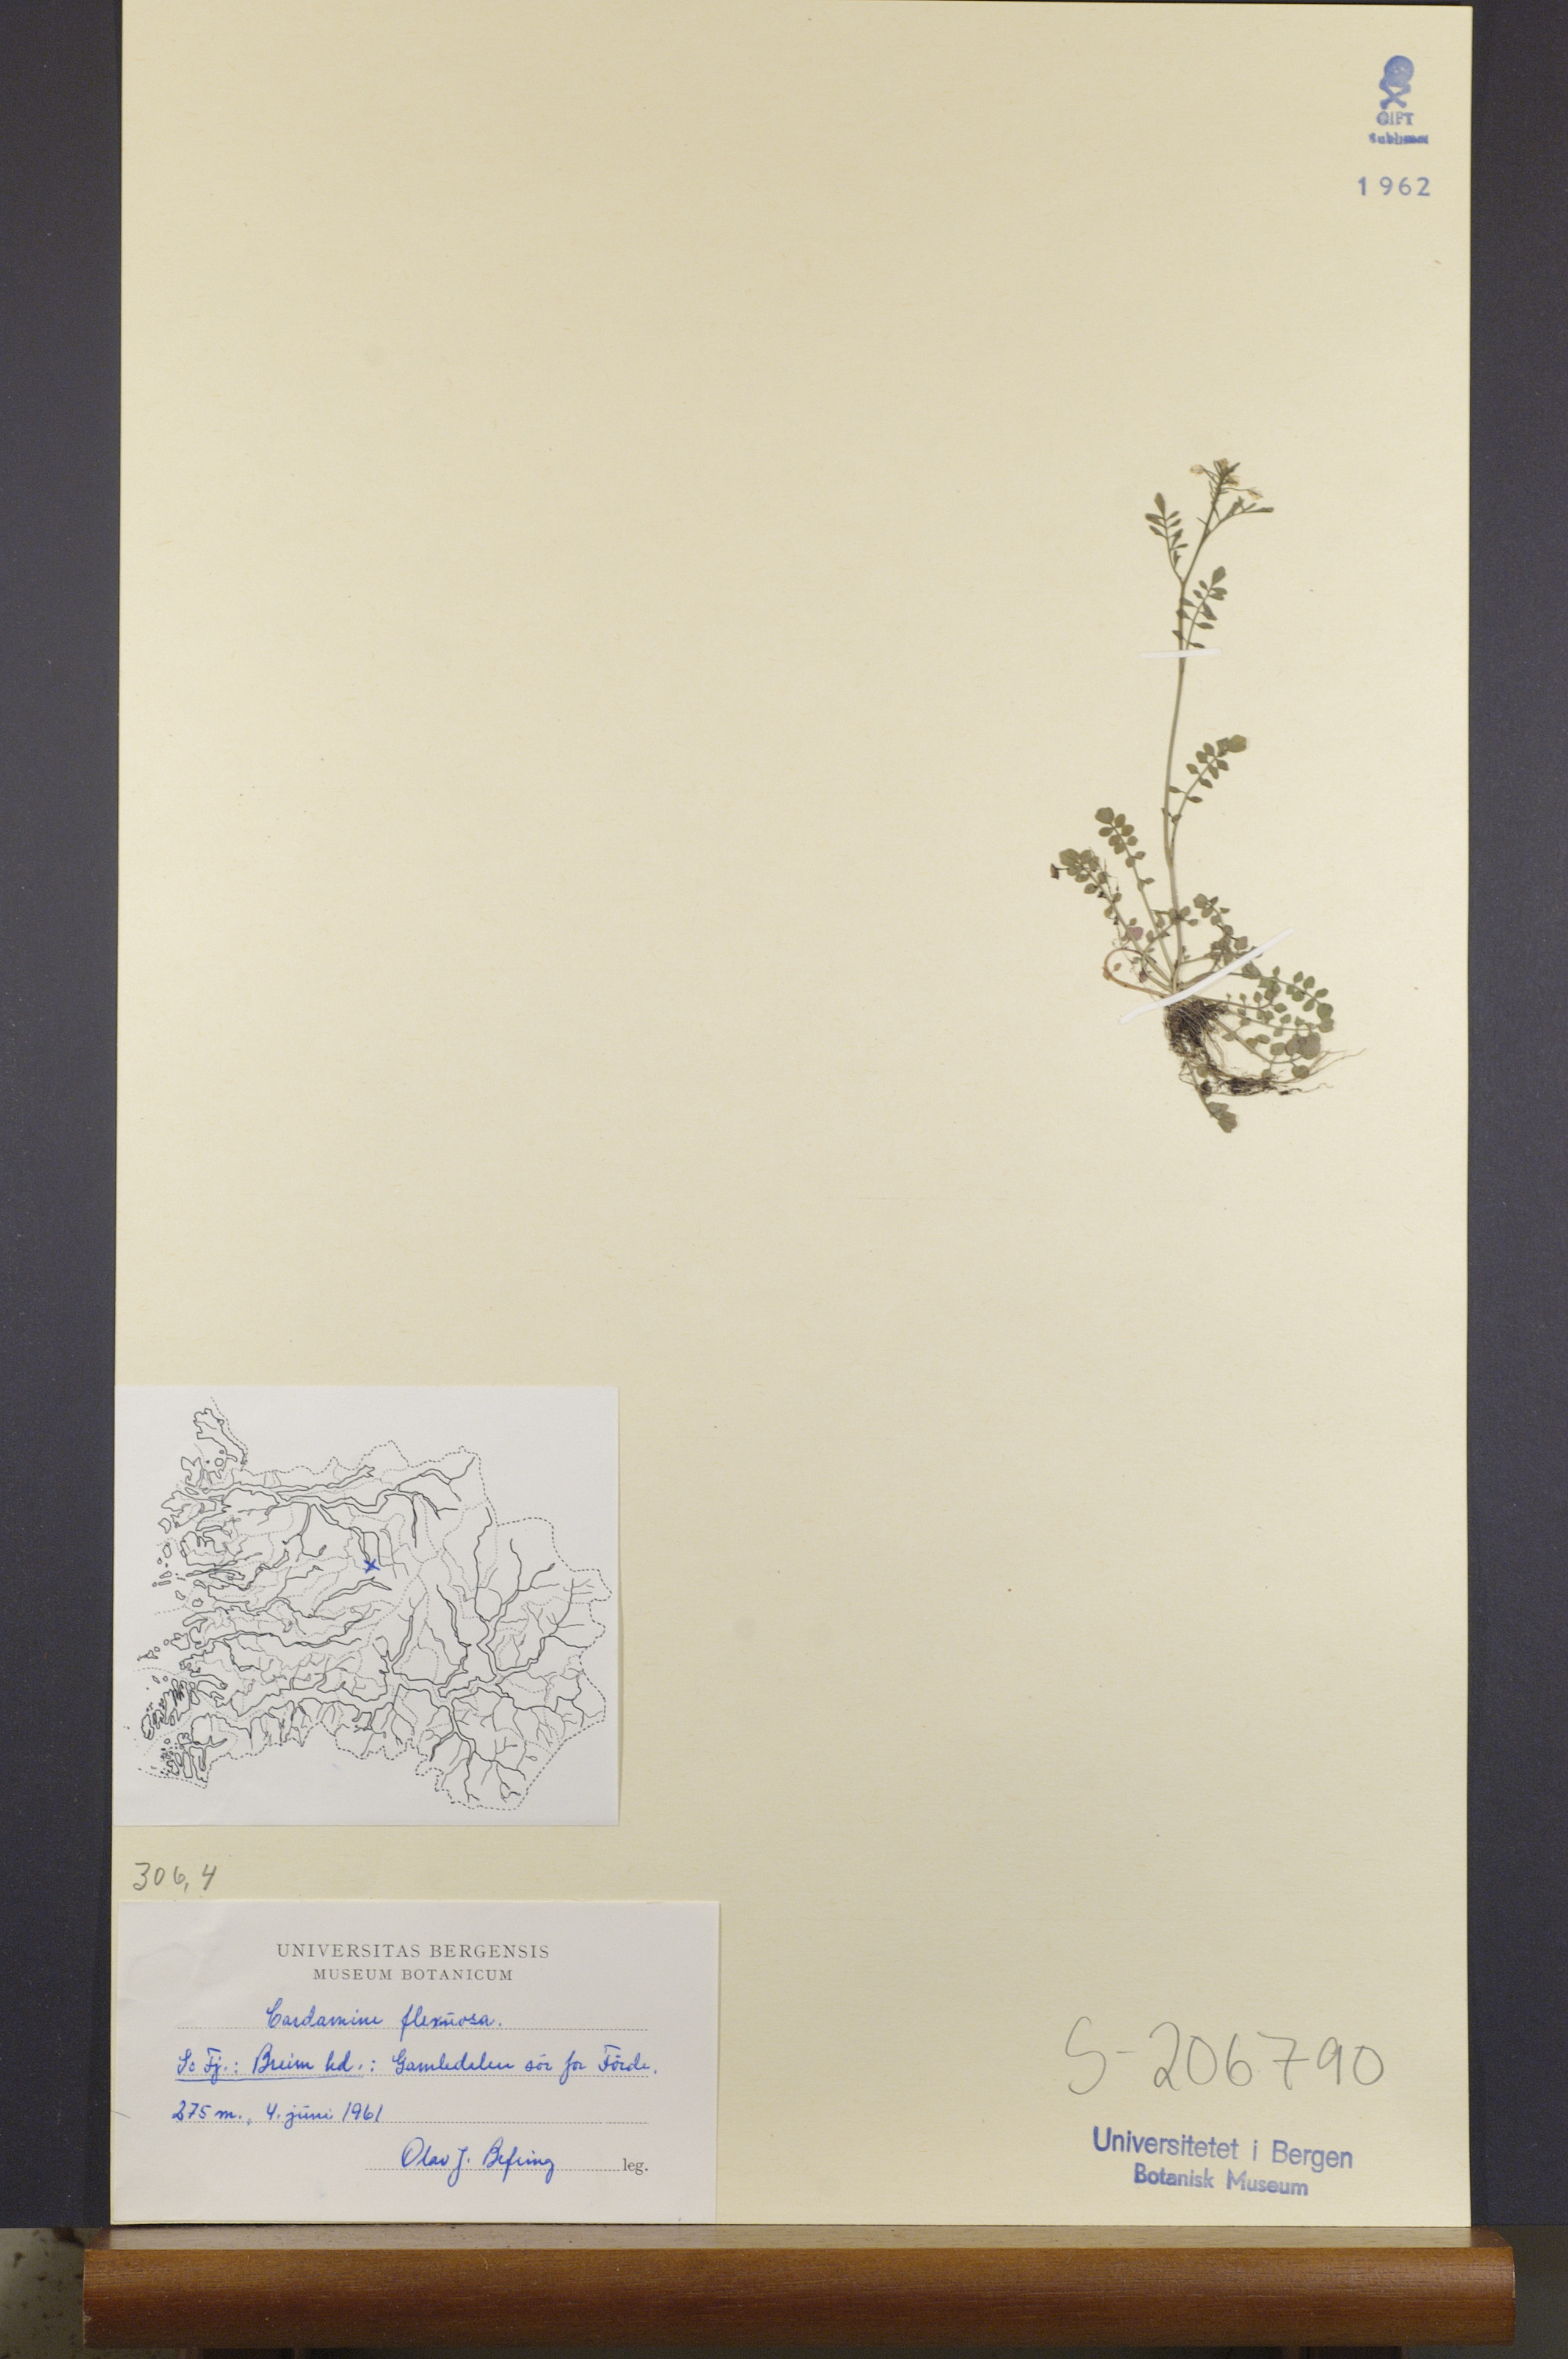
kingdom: Plantae
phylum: Tracheophyta
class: Magnoliopsida
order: Brassicales
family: Brassicaceae
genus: Cardamine
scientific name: Cardamine flexuosa
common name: Woodland bittercress
